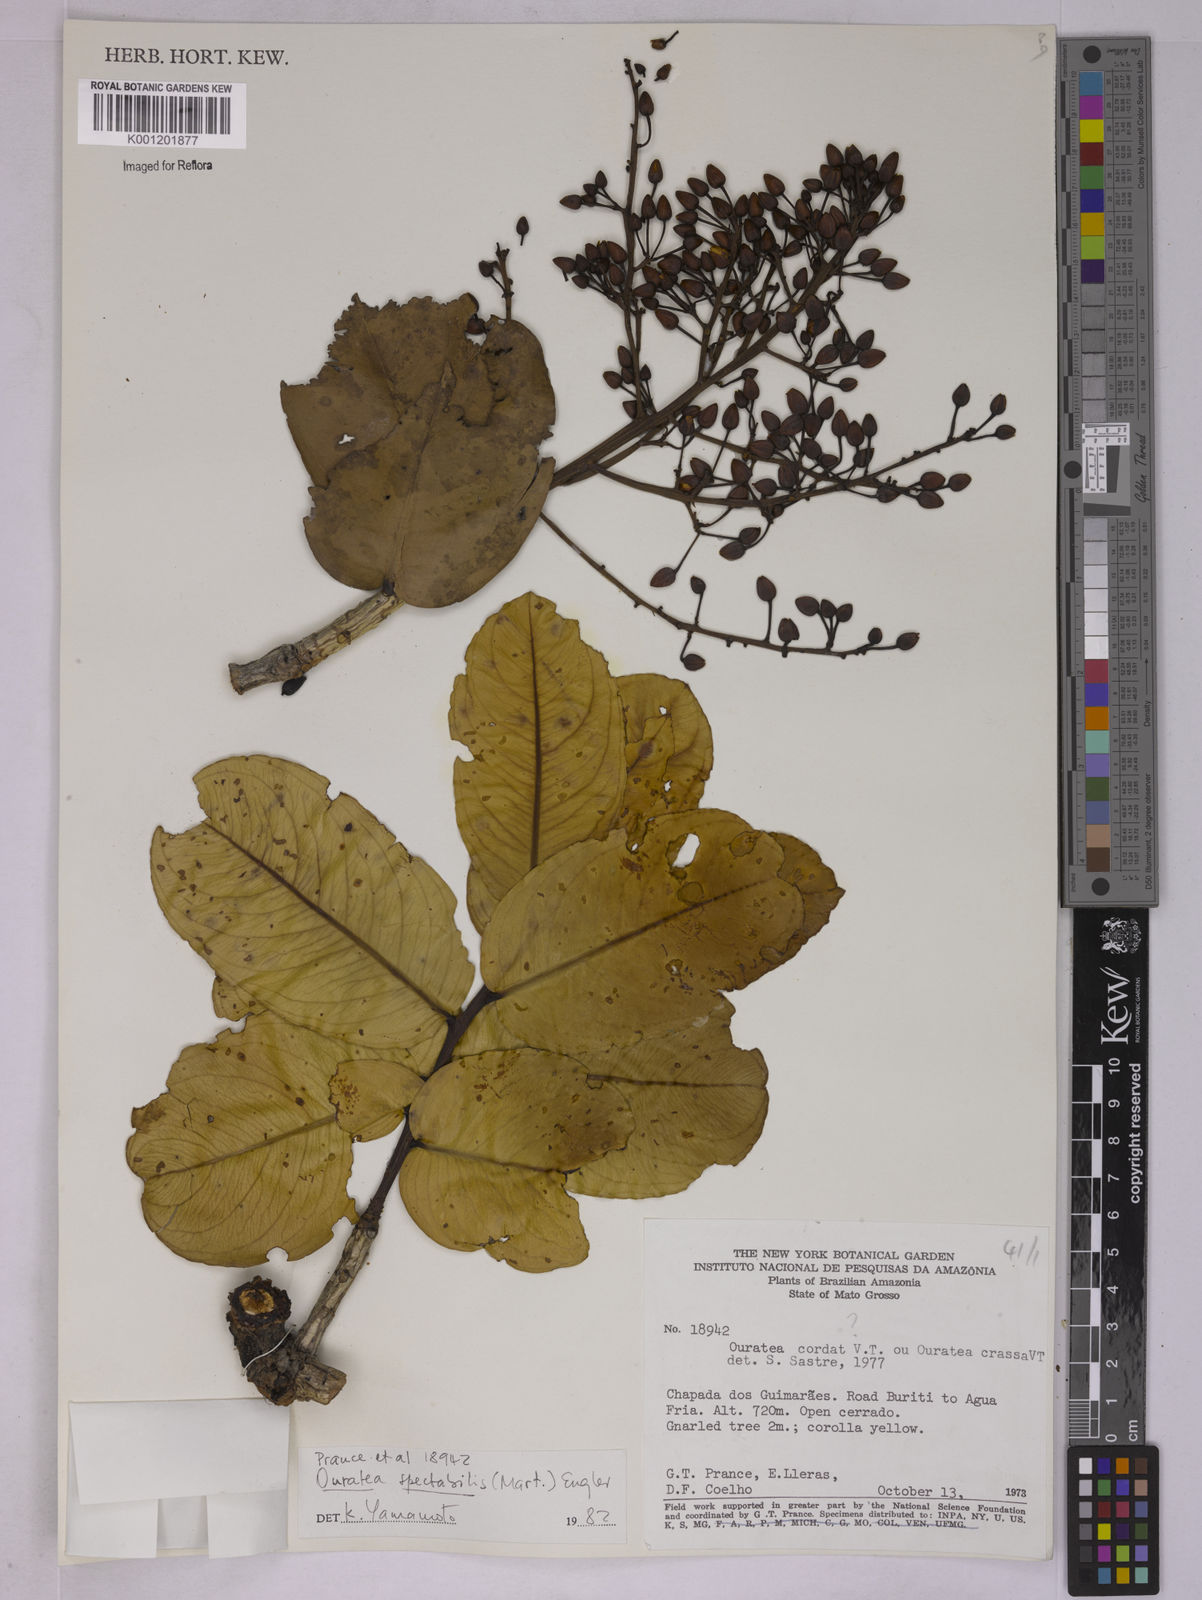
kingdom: Plantae
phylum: Tracheophyta
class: Magnoliopsida
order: Malpighiales
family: Ochnaceae
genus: Ouratea
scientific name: Ouratea spectabilis
